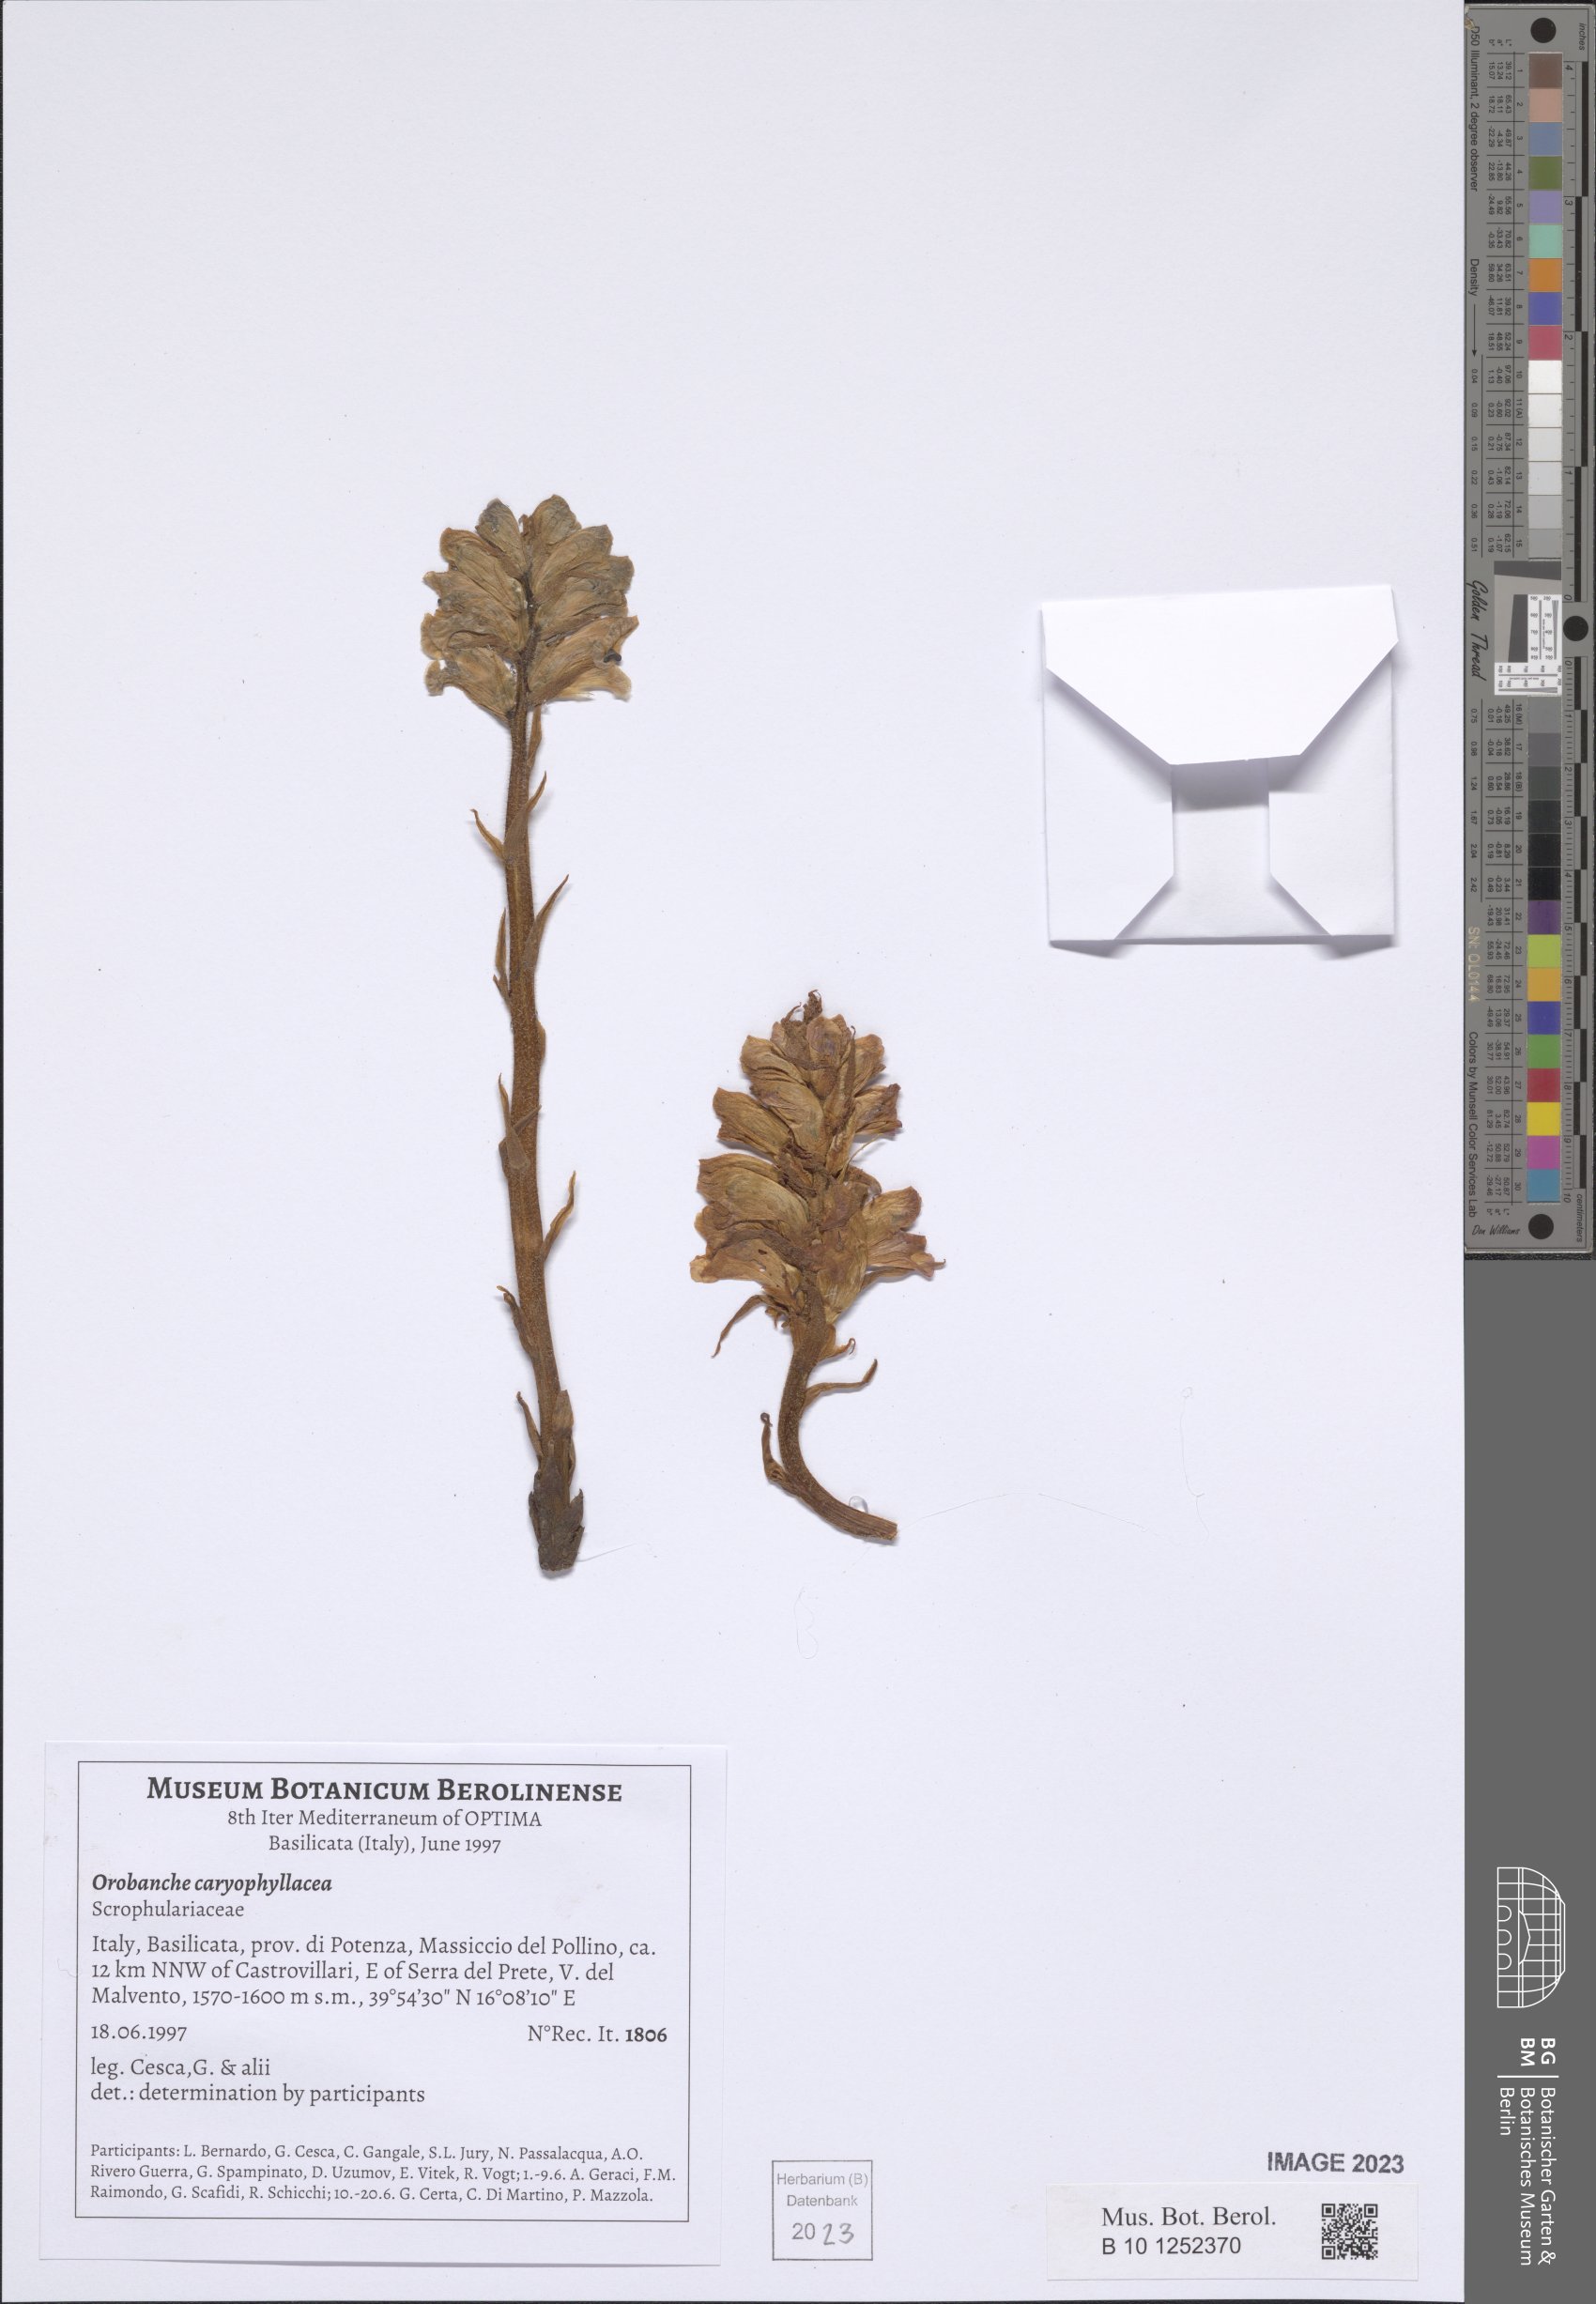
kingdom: Plantae
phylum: Tracheophyta
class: Magnoliopsida
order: Lamiales
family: Orobanchaceae
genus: Orobanche
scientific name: Orobanche caryophyllacea
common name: Bedstraw broomrape
